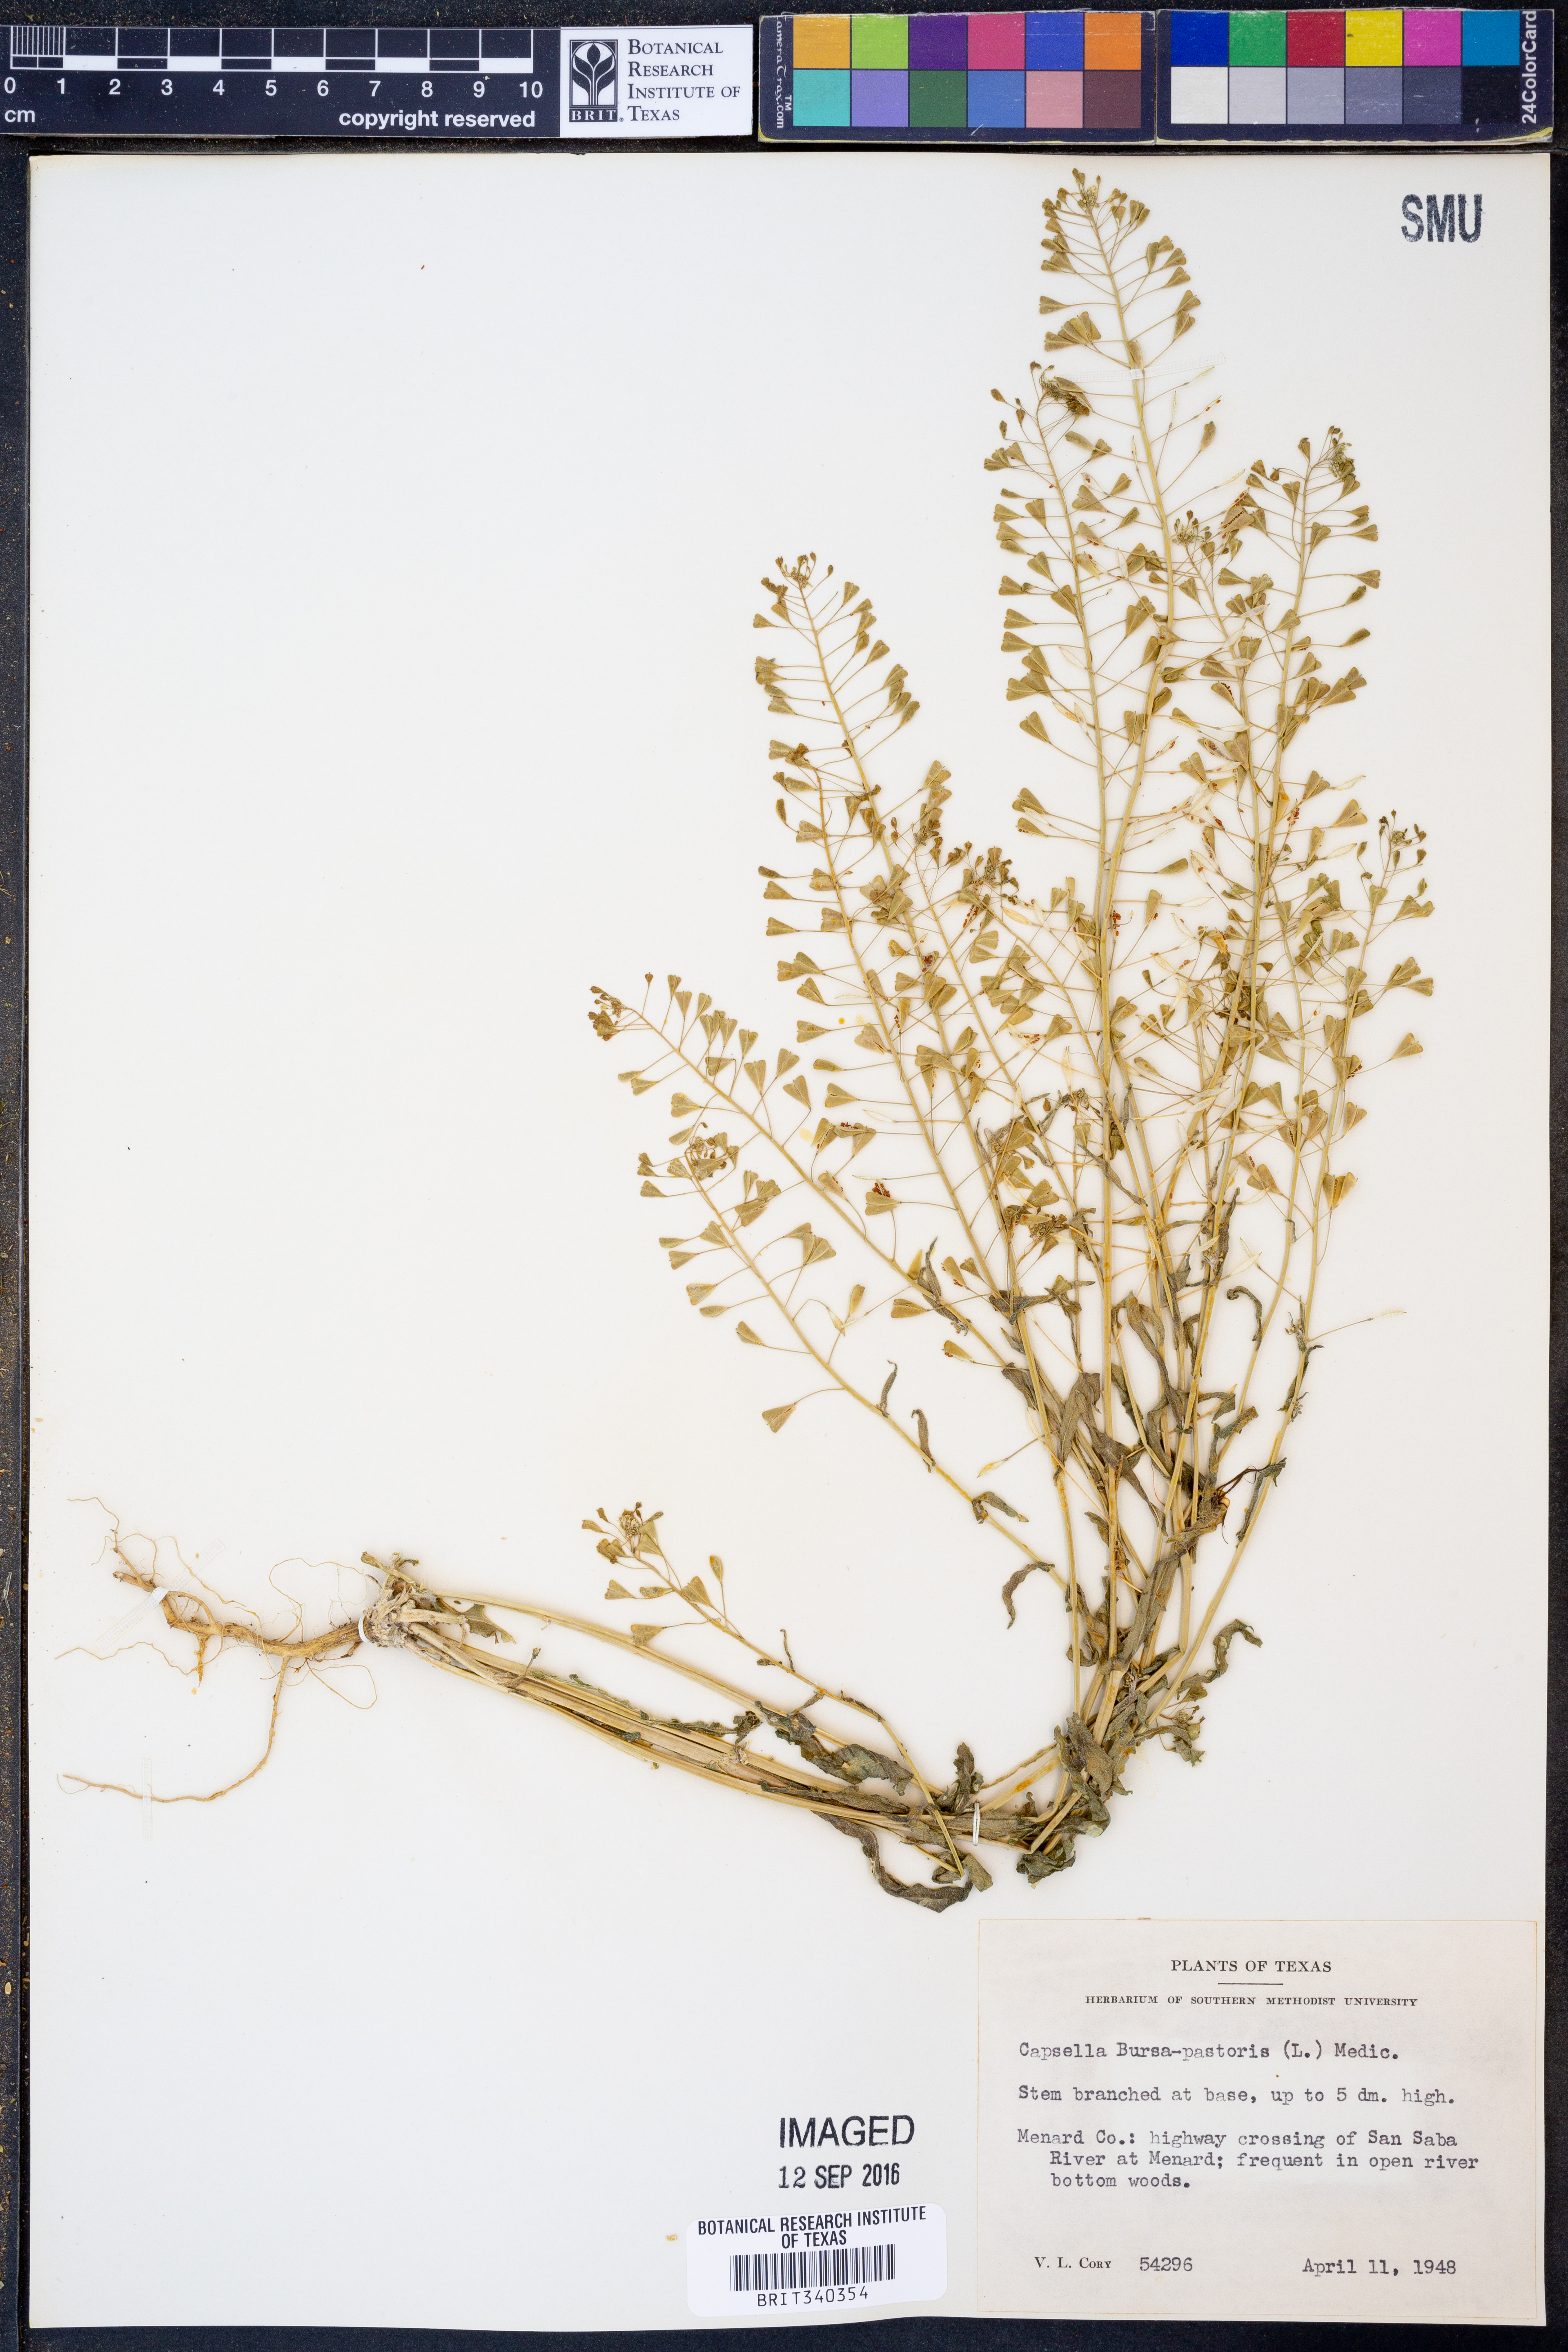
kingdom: Plantae
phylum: Tracheophyta
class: Magnoliopsida
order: Brassicales
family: Brassicaceae
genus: Capsella
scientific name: Capsella bursa-pastoris
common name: Shepherd's purse
